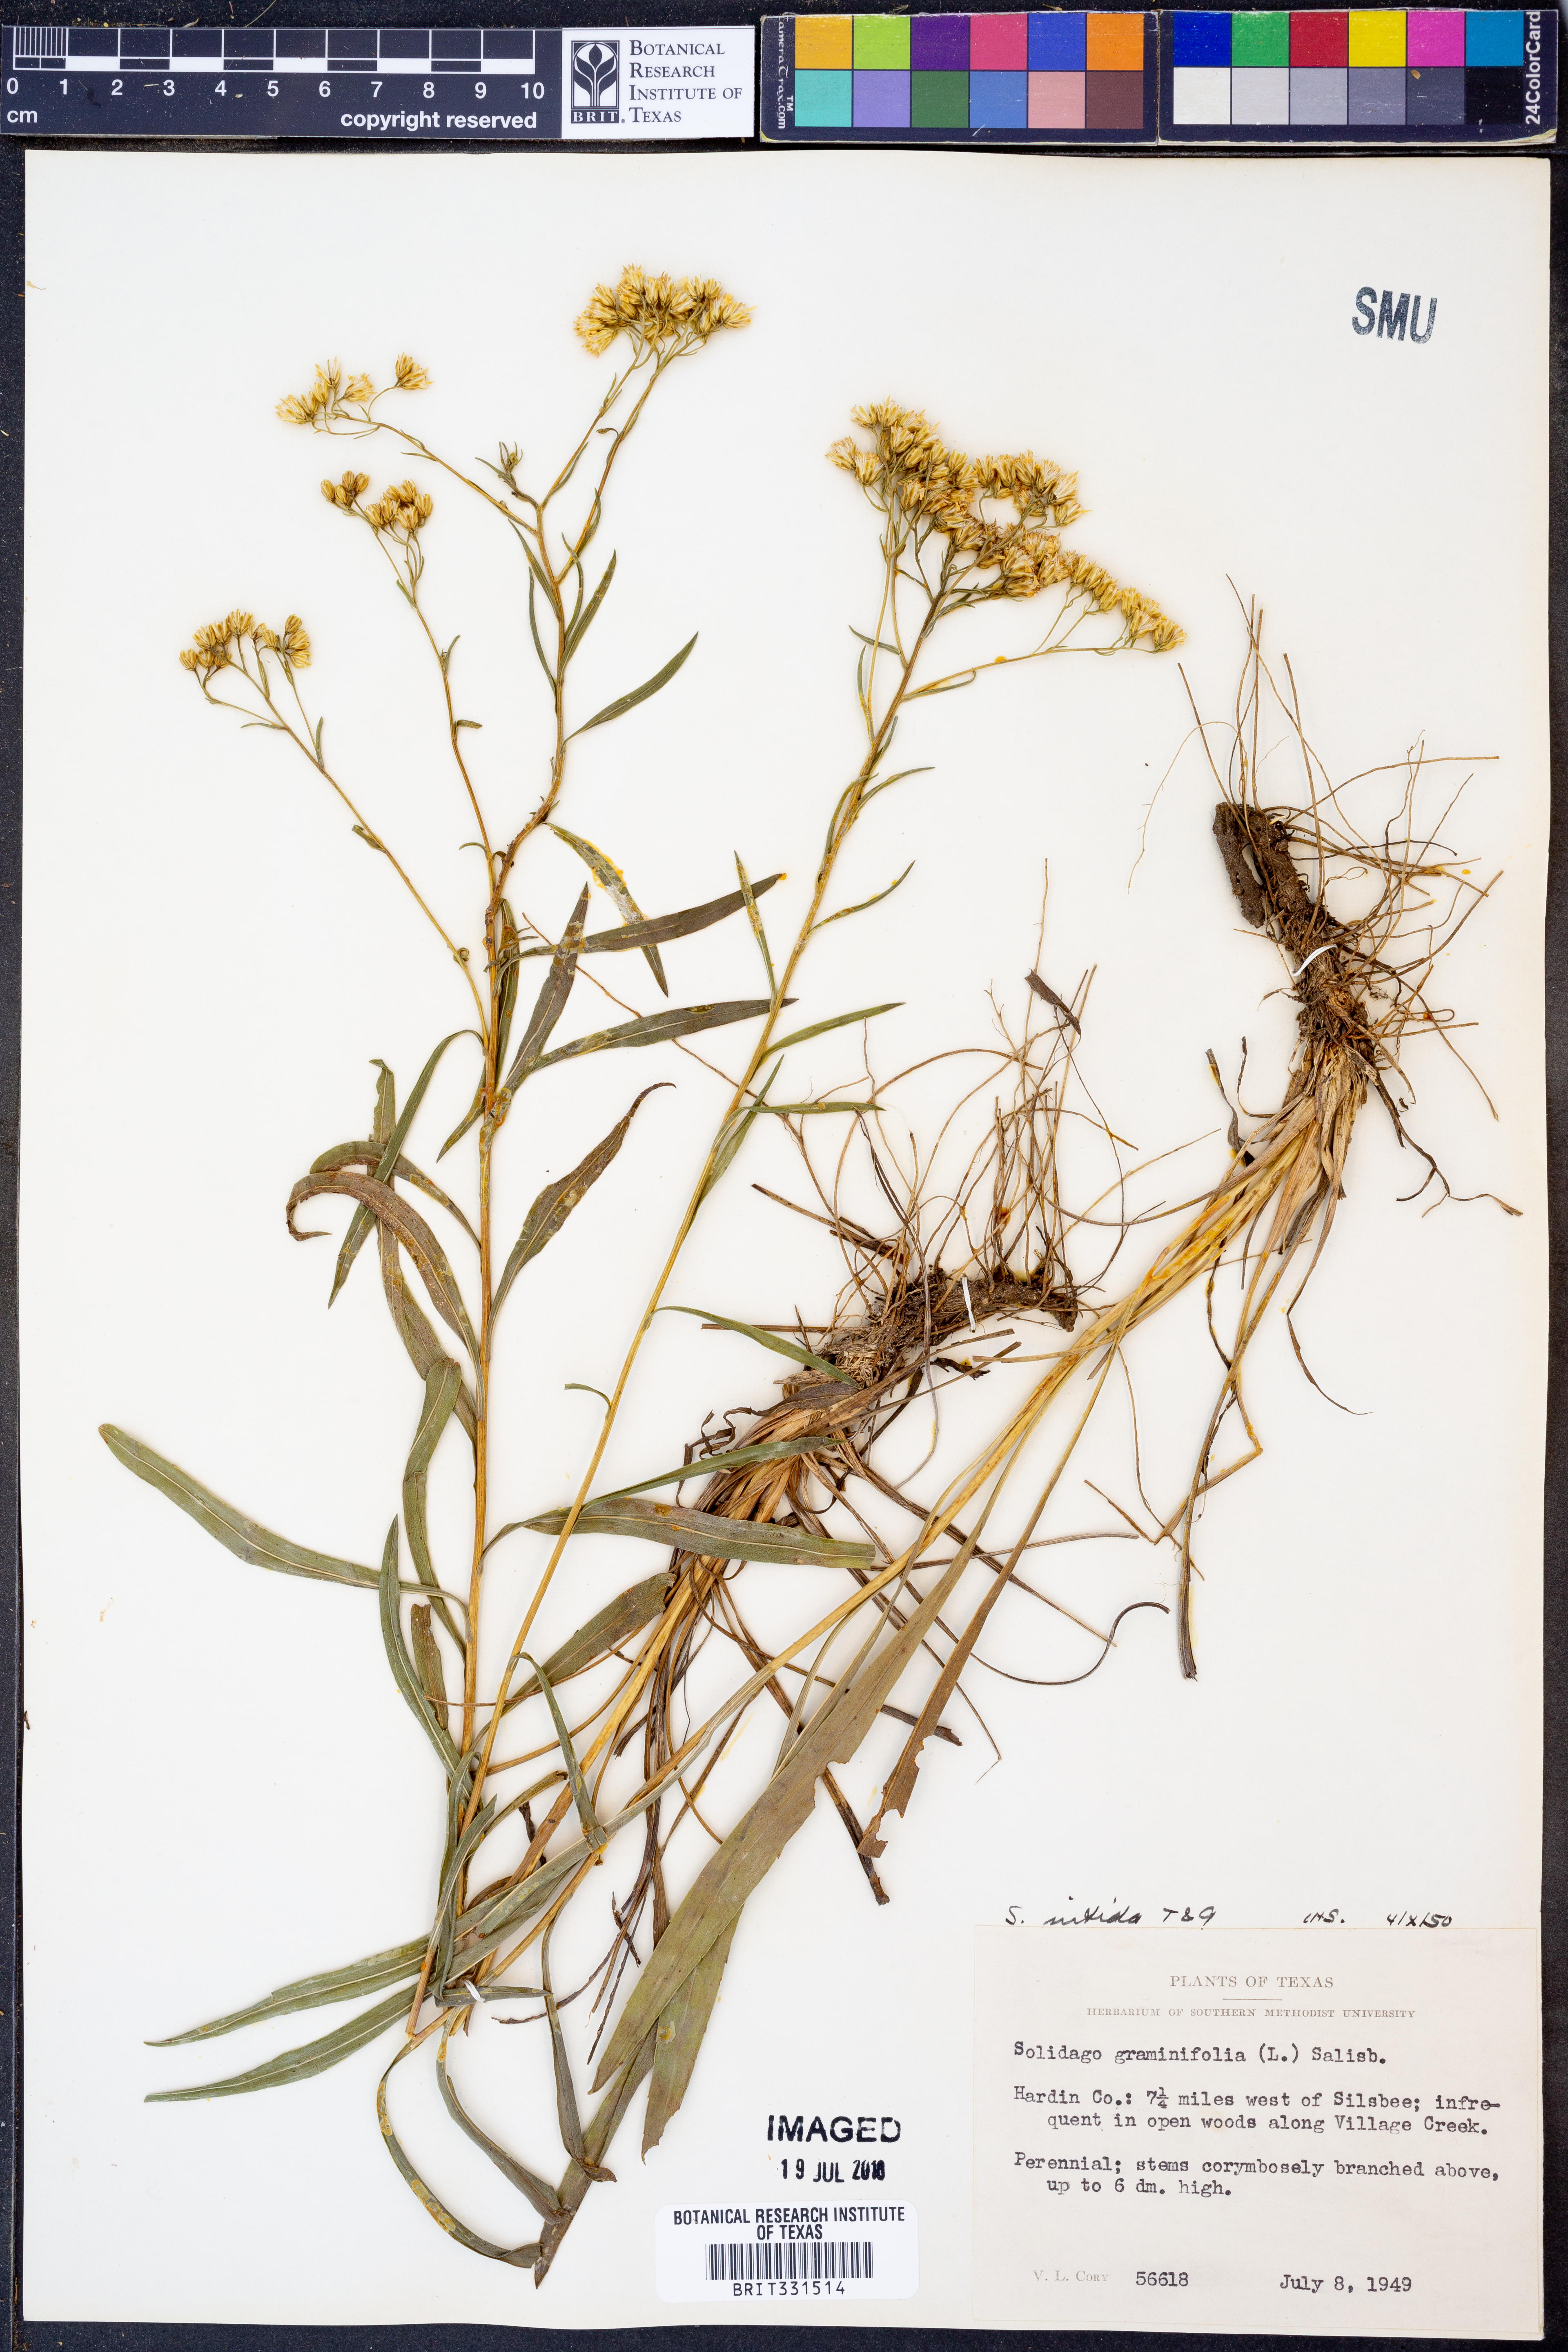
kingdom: Plantae
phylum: Tracheophyta
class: Magnoliopsida
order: Asterales
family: Asteraceae
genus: Solidago
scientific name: Solidago nitida
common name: Shiny goldenrod
